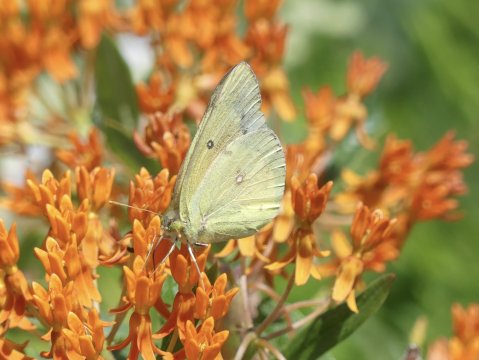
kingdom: Animalia
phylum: Arthropoda
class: Insecta
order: Lepidoptera
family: Pieridae
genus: Colias
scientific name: Colias eurytheme
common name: Orange Sulphur
